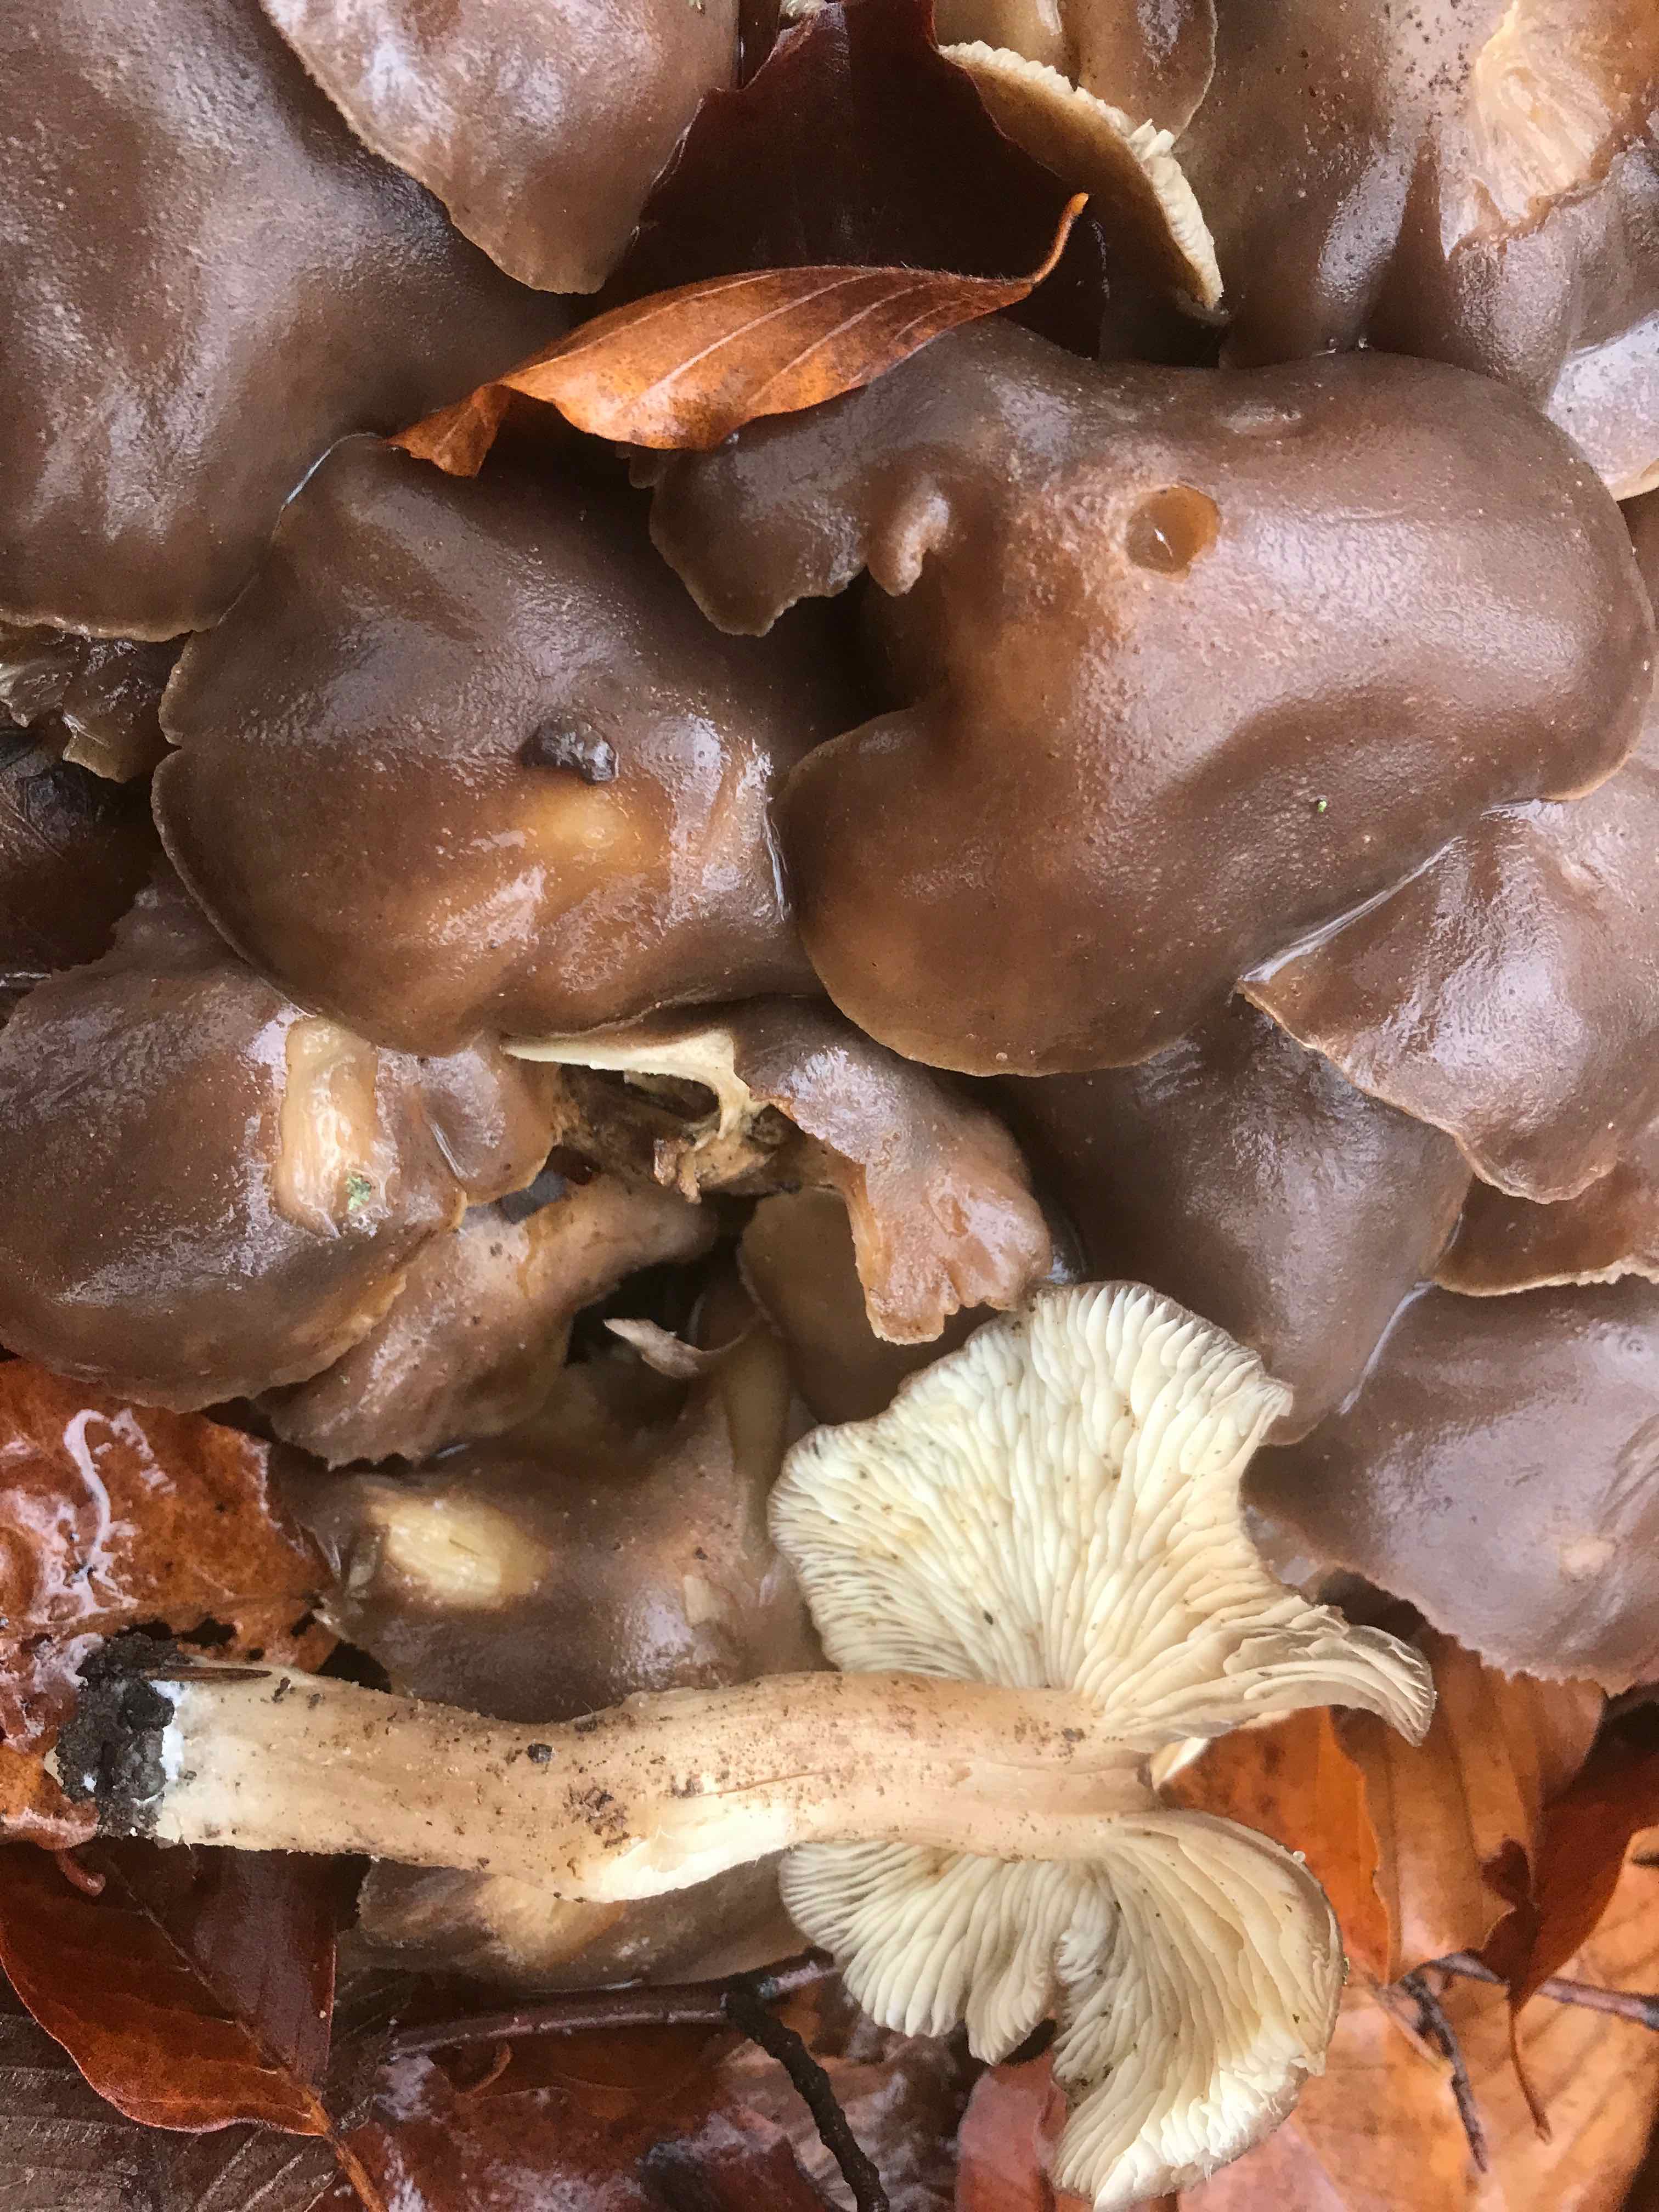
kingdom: Fungi
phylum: Basidiomycota
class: Agaricomycetes
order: Agaricales
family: Lyophyllaceae
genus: Lyophyllum
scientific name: Lyophyllum decastes
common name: Clustered domecap
